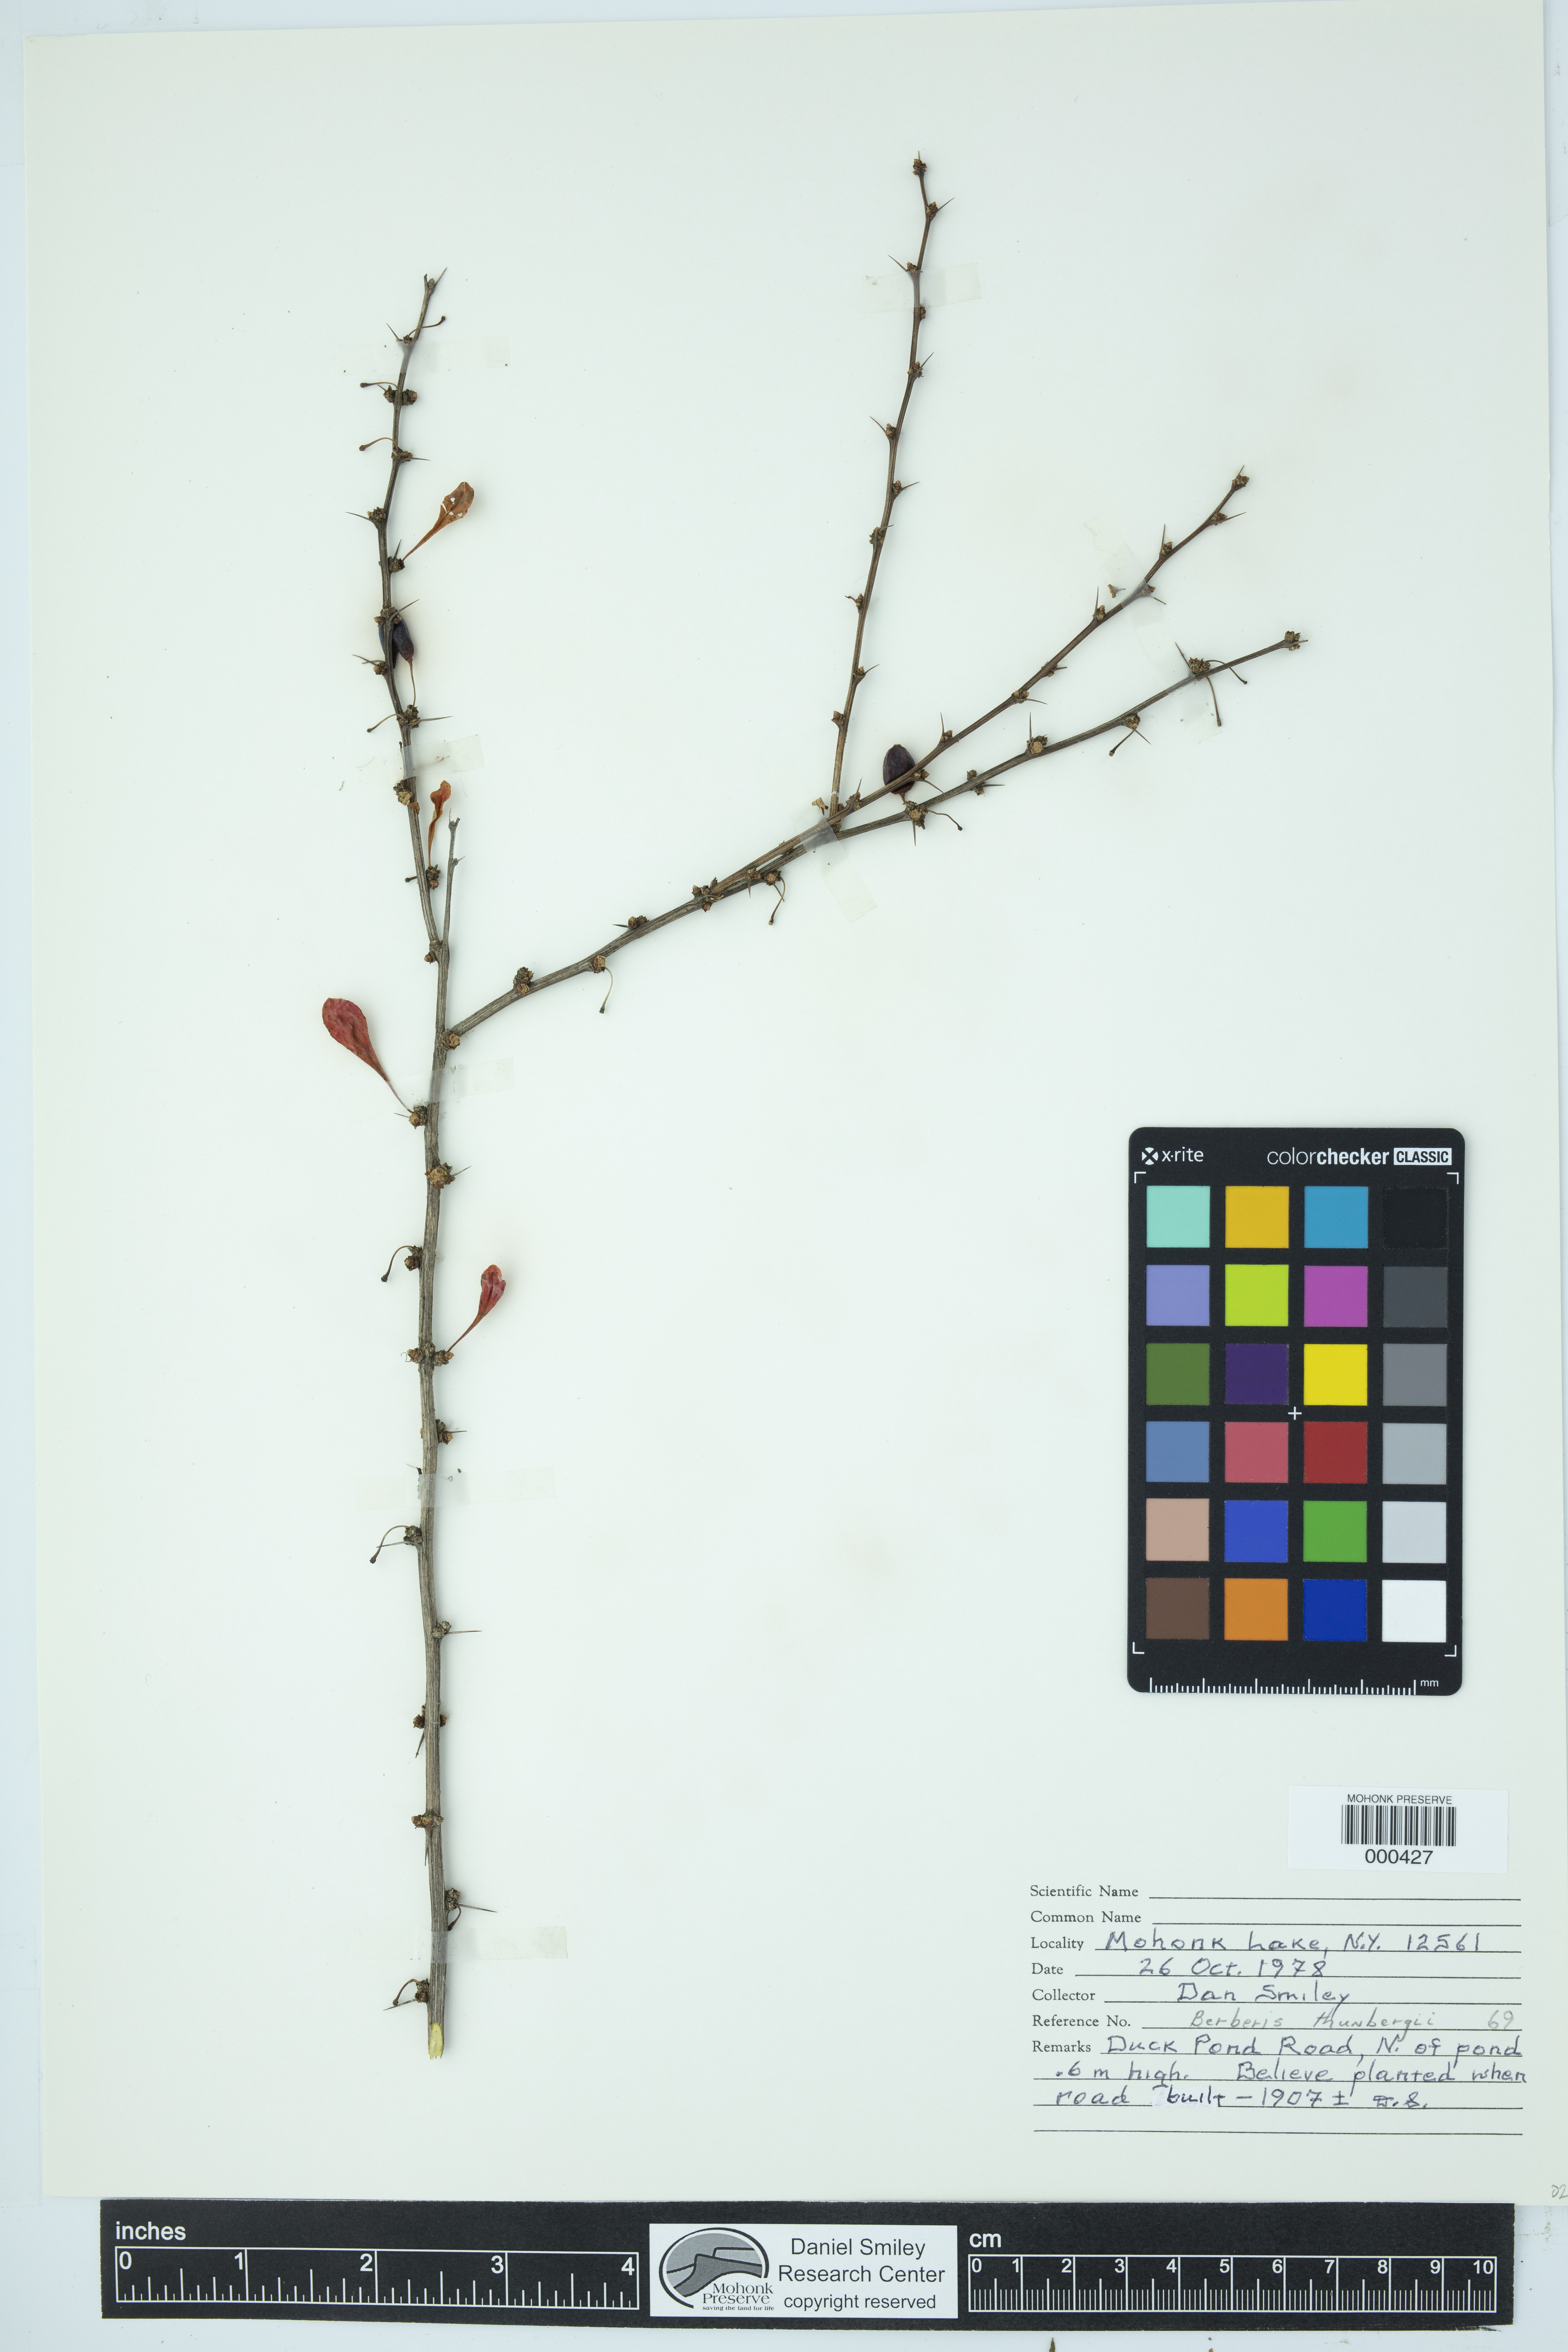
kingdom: Plantae
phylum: Tracheophyta
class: Magnoliopsida
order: Ranunculales
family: Berberidaceae
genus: Berberis
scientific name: Berberis thunbergii
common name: Japanese barberry
